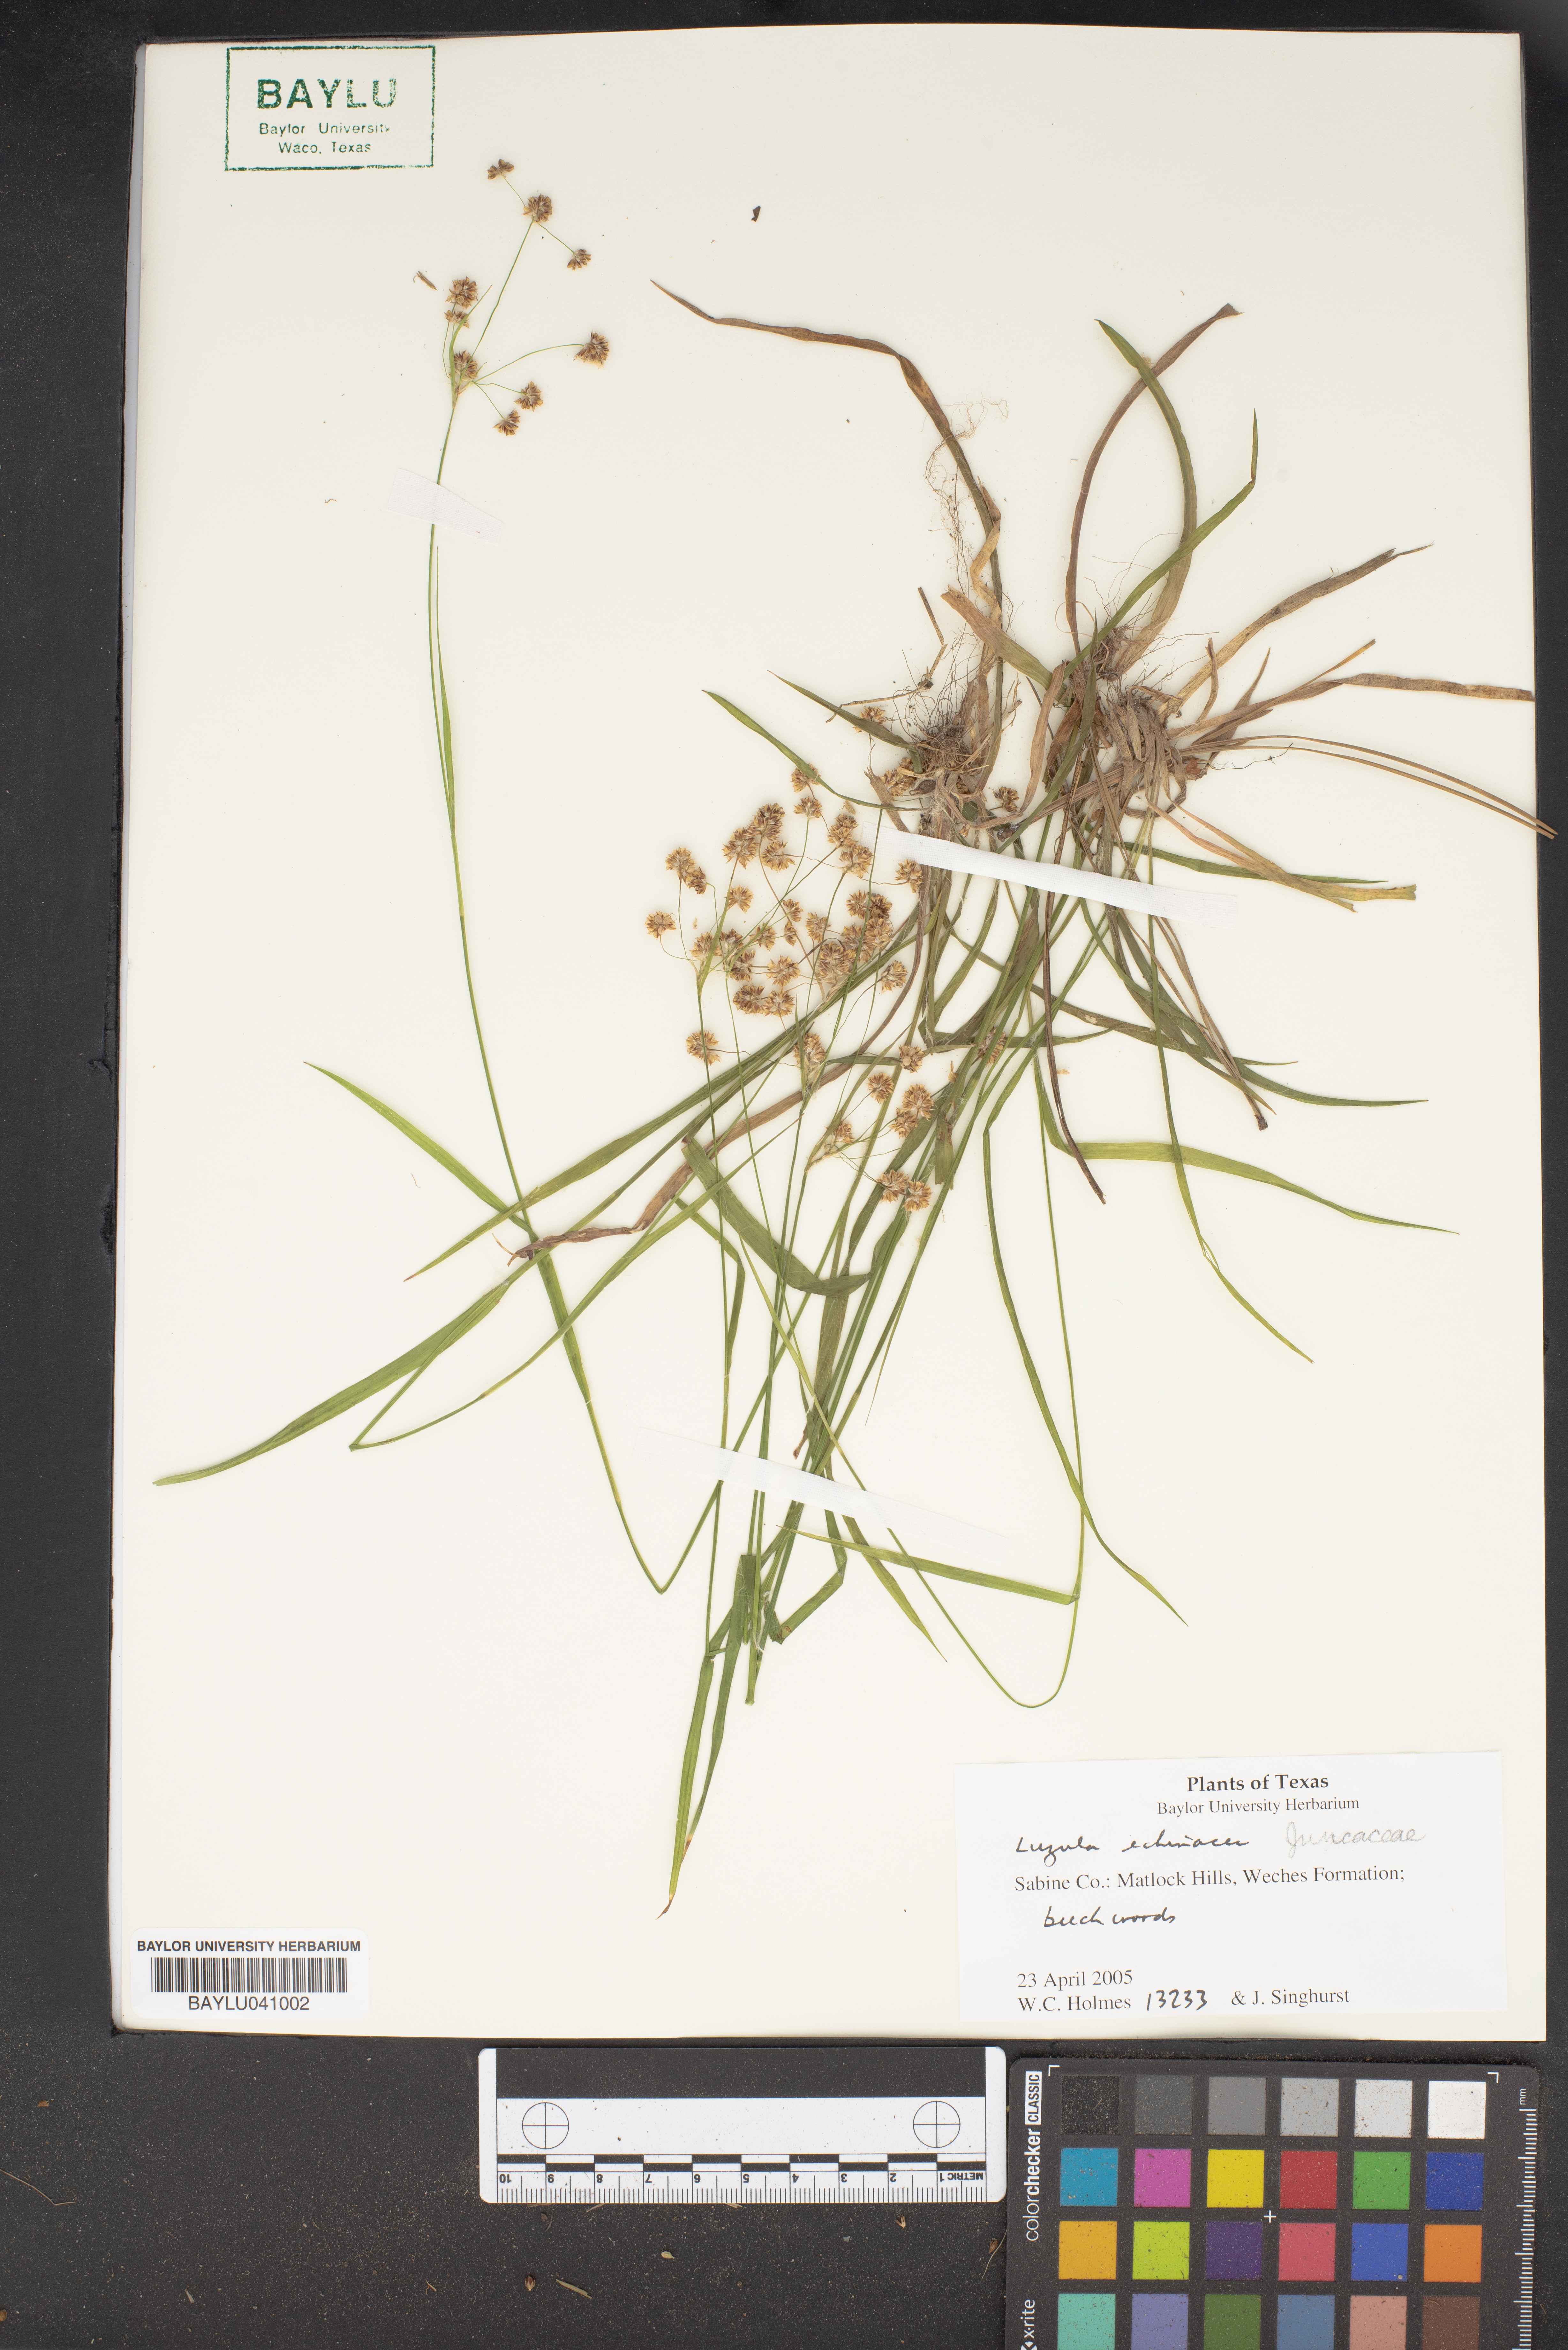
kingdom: Plantae
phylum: Tracheophyta
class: Liliopsida
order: Asparagales
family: Asparagaceae
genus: Echeandia
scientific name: Echeandia luteola
